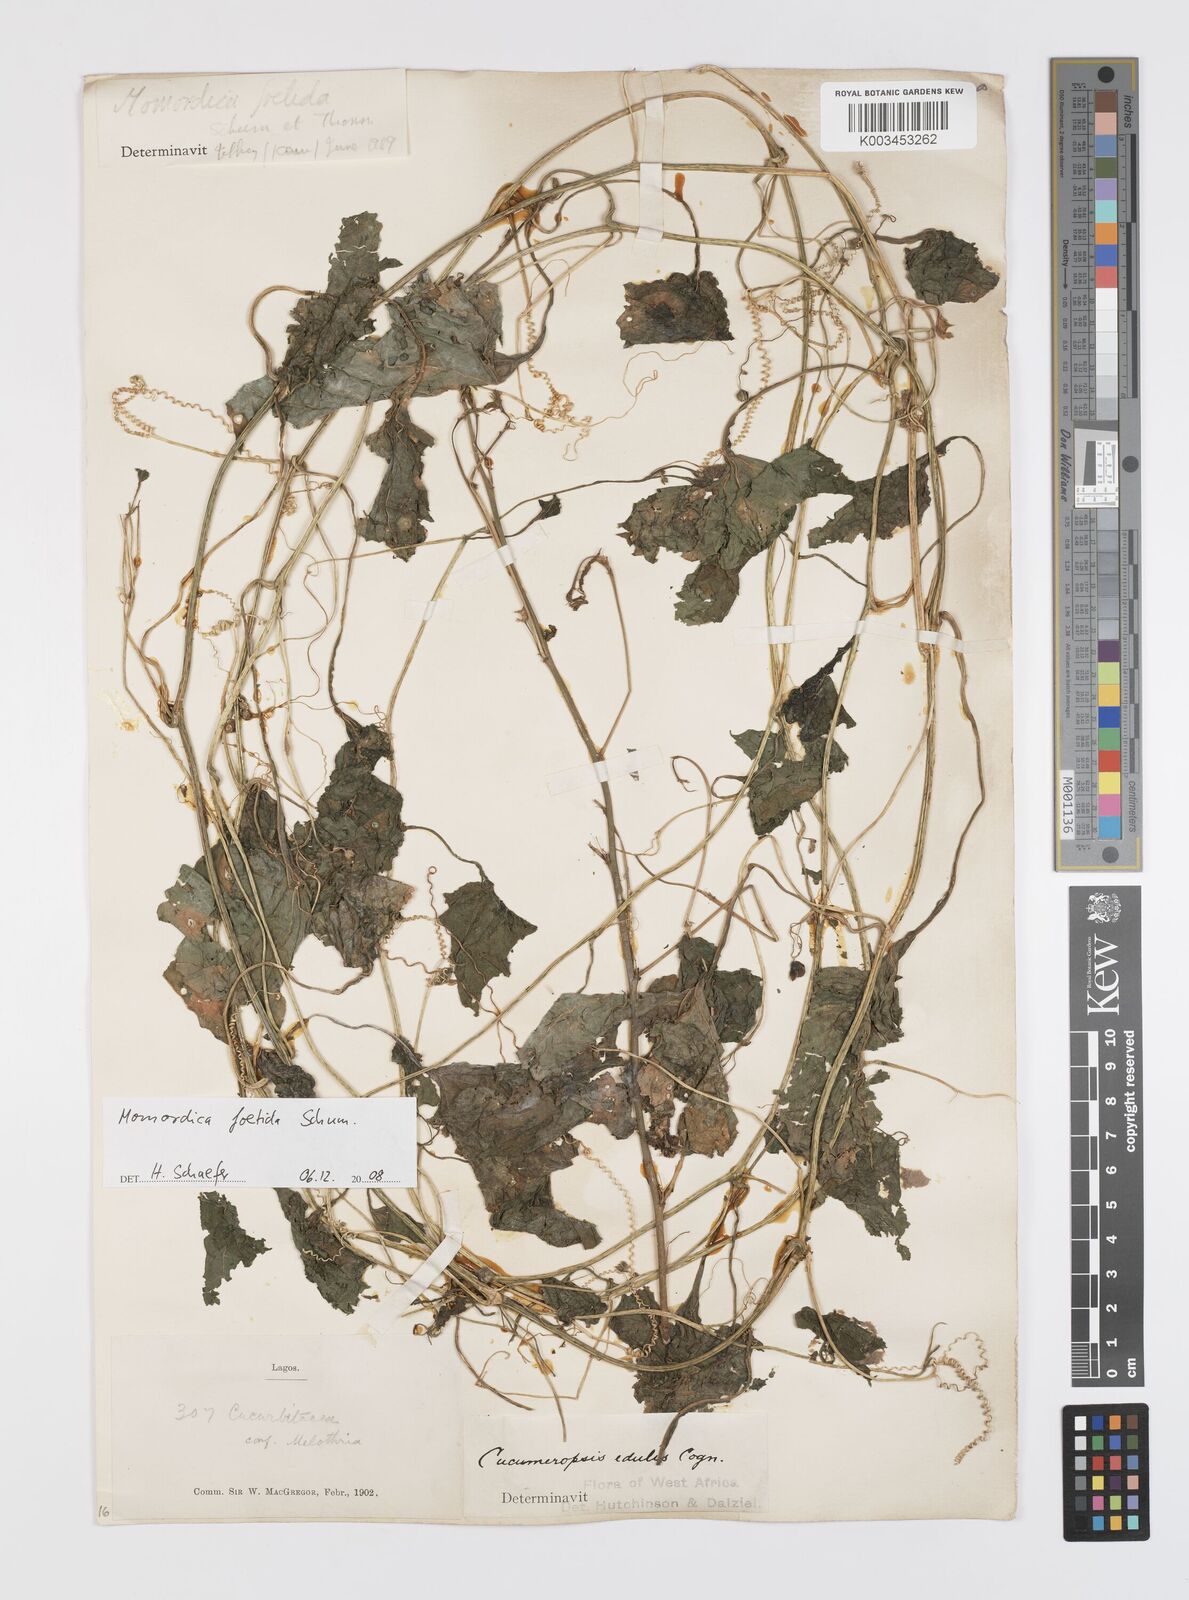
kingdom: Plantae
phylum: Tracheophyta
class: Magnoliopsida
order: Cucurbitales
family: Cucurbitaceae
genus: Momordica
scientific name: Momordica foetida
